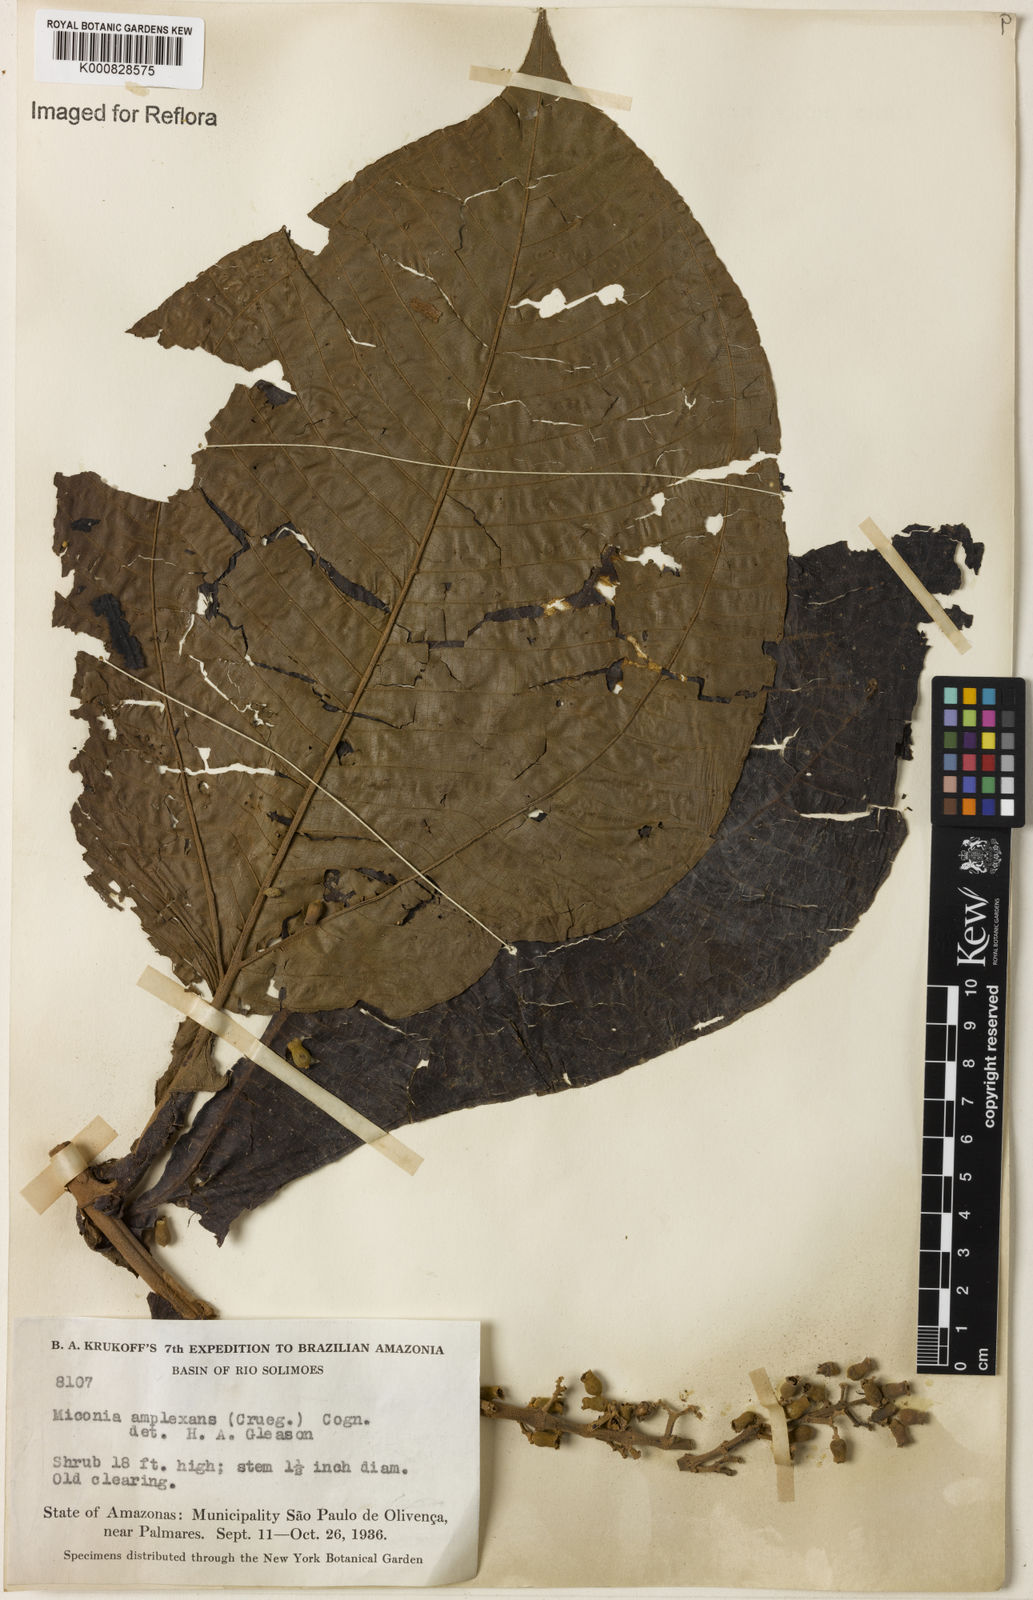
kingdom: Plantae
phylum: Tracheophyta
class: Magnoliopsida
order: Myrtales
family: Melastomataceae
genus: Miconia
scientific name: Miconia tomentosa
